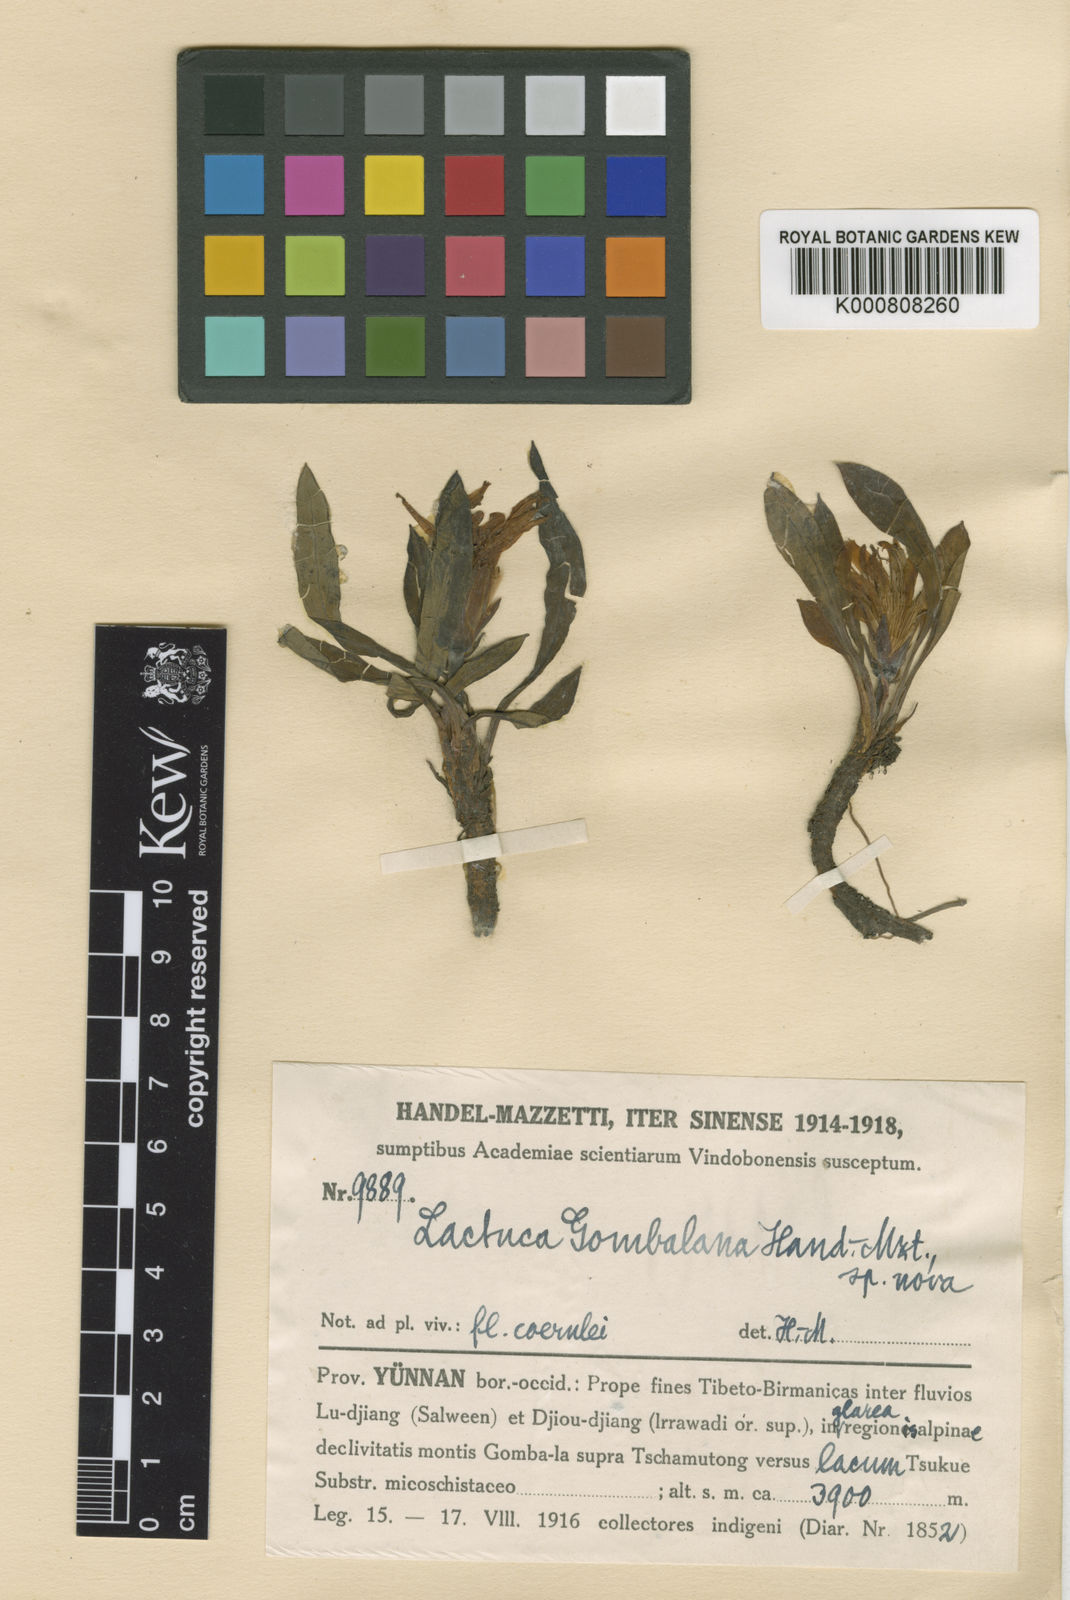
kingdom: Plantae
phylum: Tracheophyta
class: Magnoliopsida
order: Asterales
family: Asteraceae
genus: Lihengia
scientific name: Lihengia gombalana
